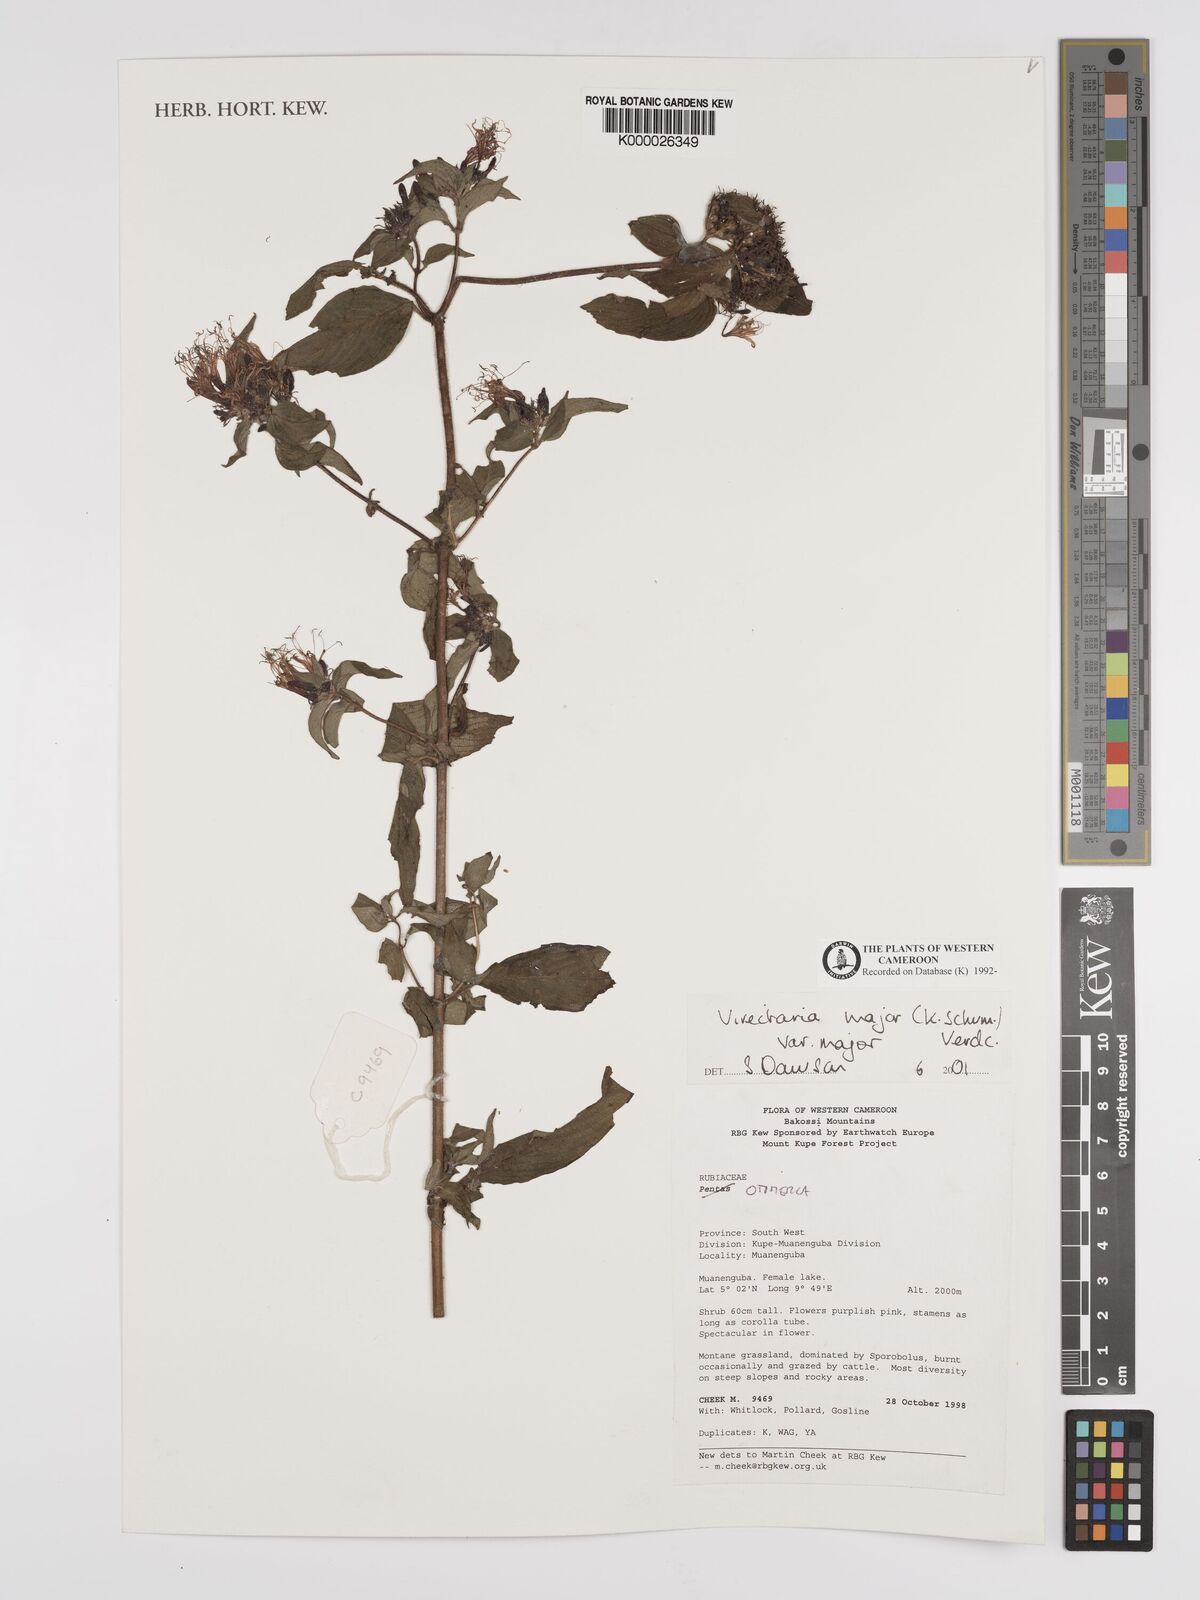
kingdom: Plantae
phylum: Tracheophyta
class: Magnoliopsida
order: Gentianales
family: Rubiaceae
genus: Virectaria
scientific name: Virectaria major
